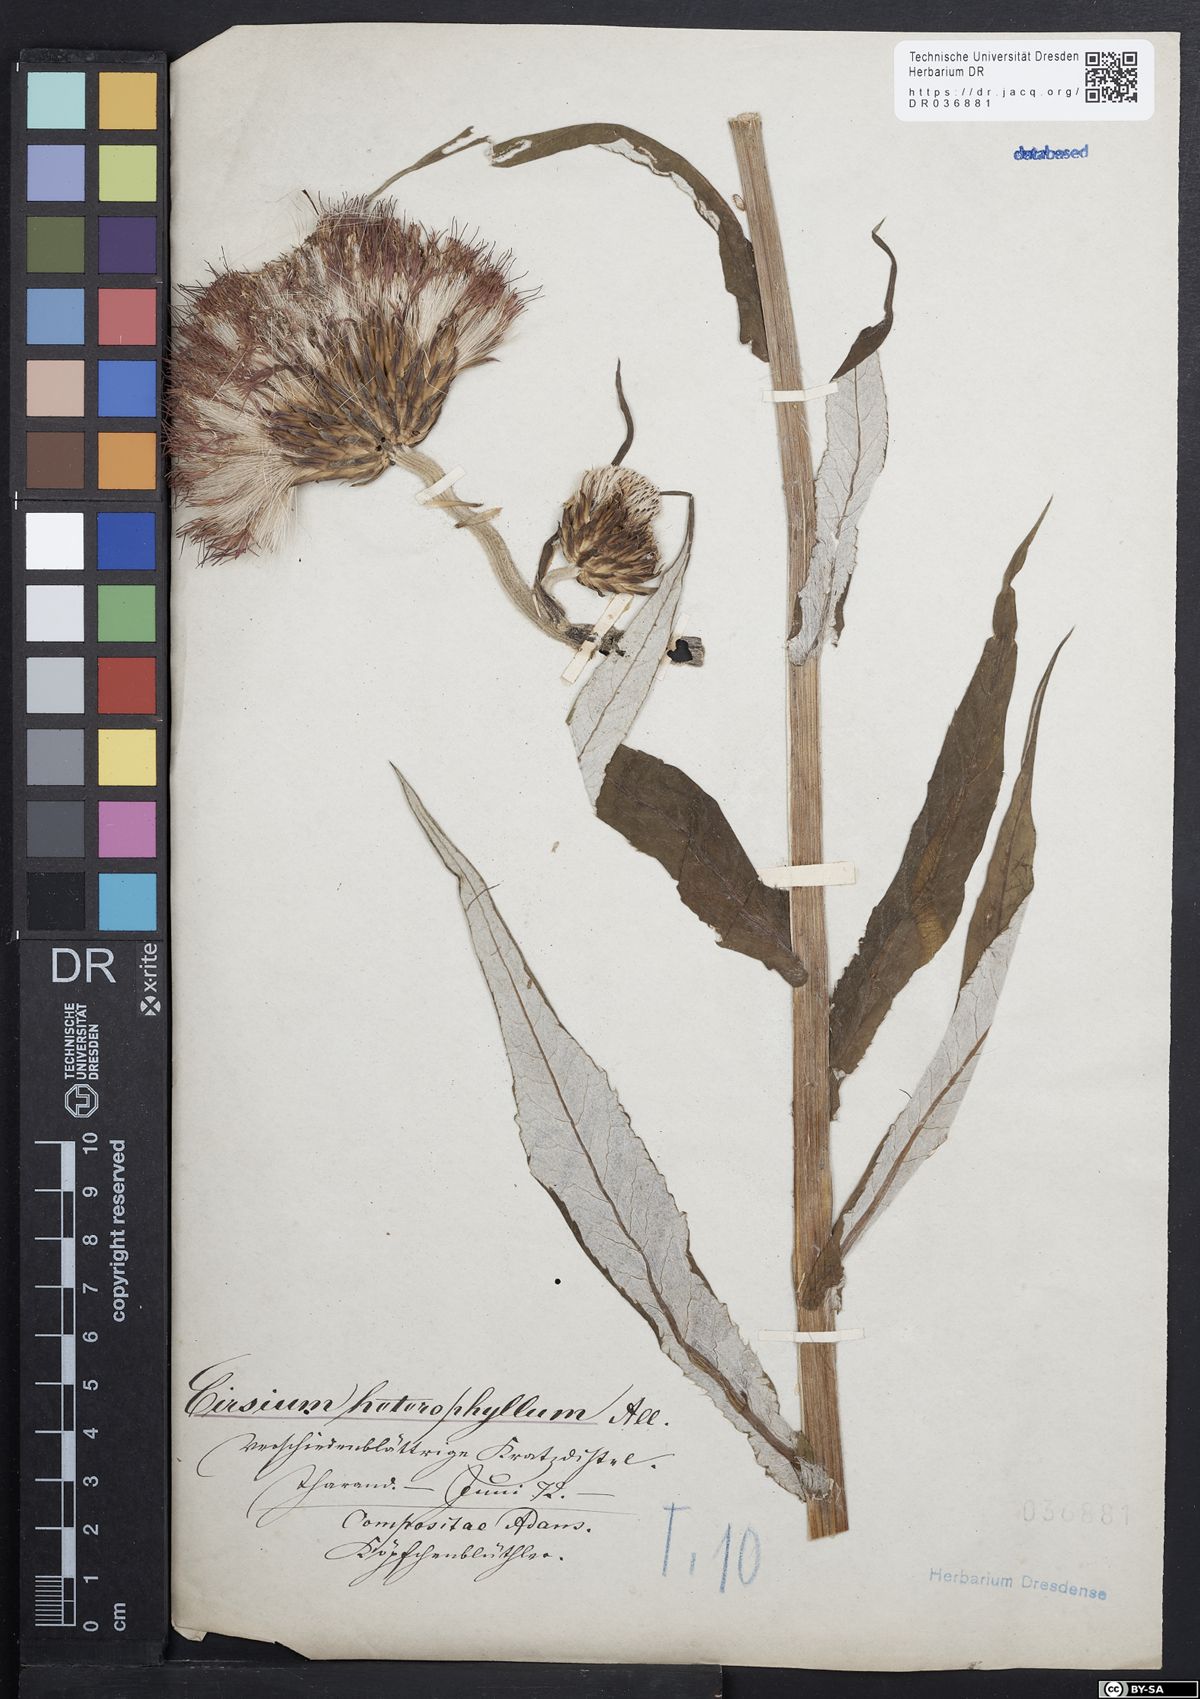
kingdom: Plantae
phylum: Tracheophyta
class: Magnoliopsida
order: Asterales
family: Asteraceae
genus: Cirsium
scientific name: Cirsium helenioides
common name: Melancholy thistle
